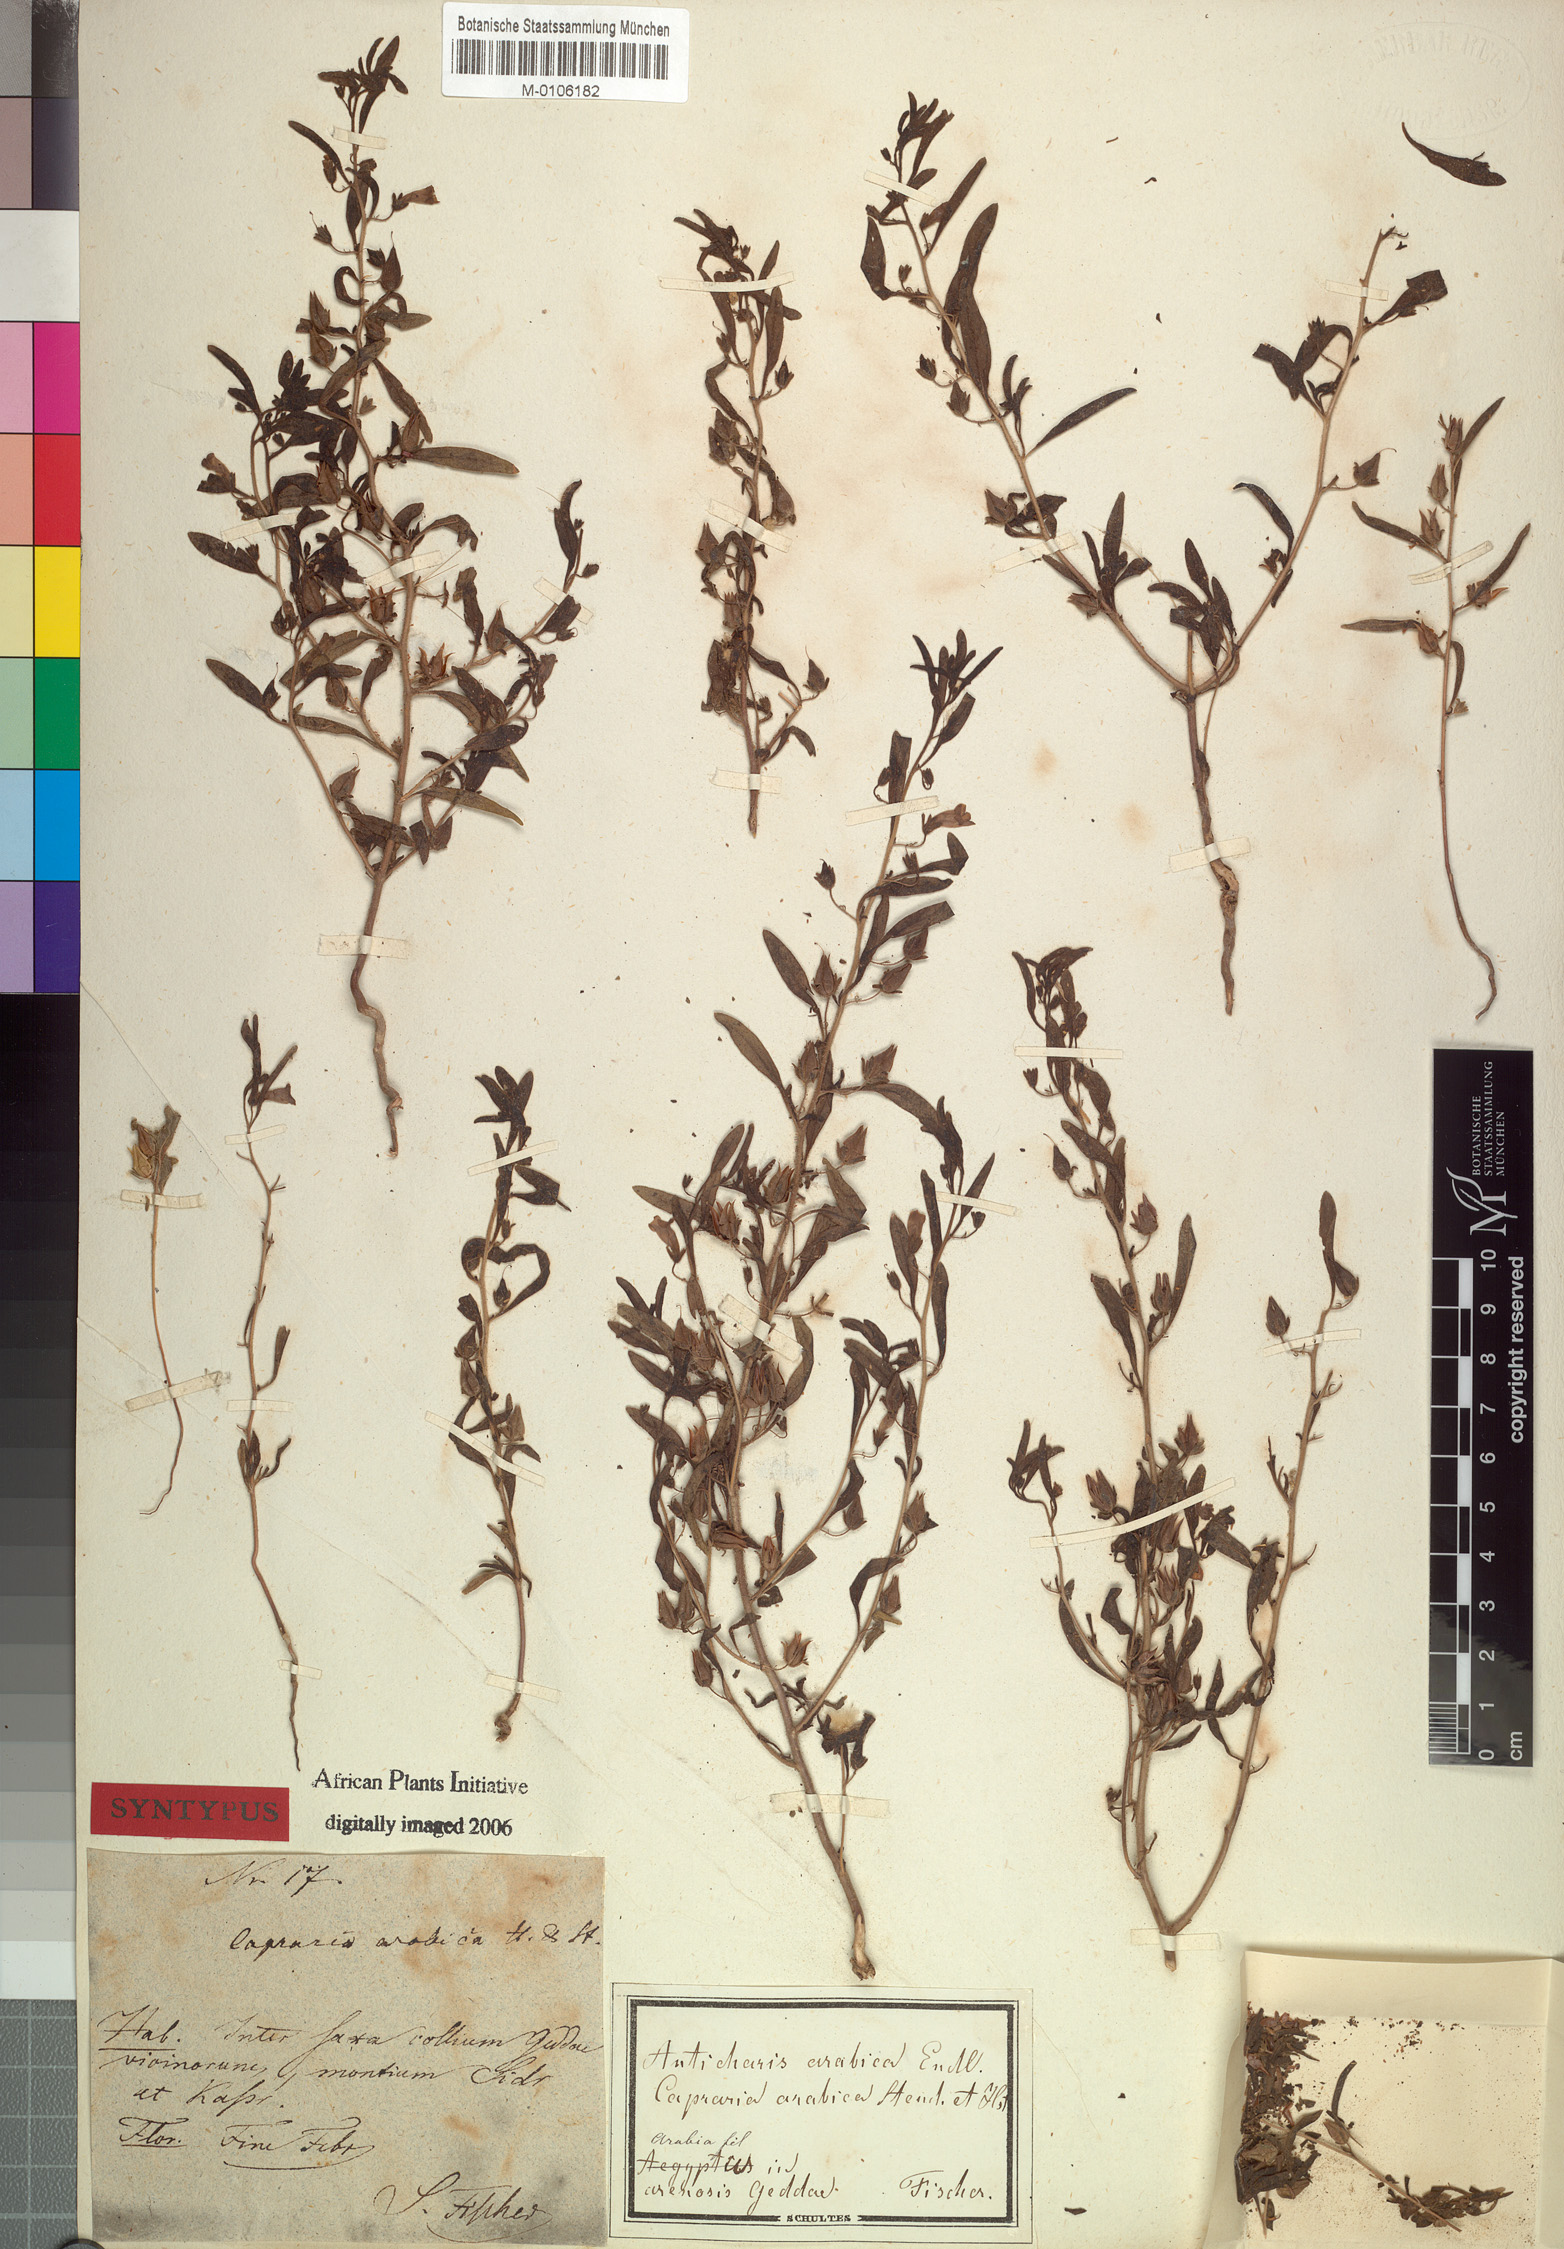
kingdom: Plantae
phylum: Tracheophyta
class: Magnoliopsida
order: Lamiales
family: Scrophulariaceae
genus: Anticharis
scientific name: Anticharis arabica
